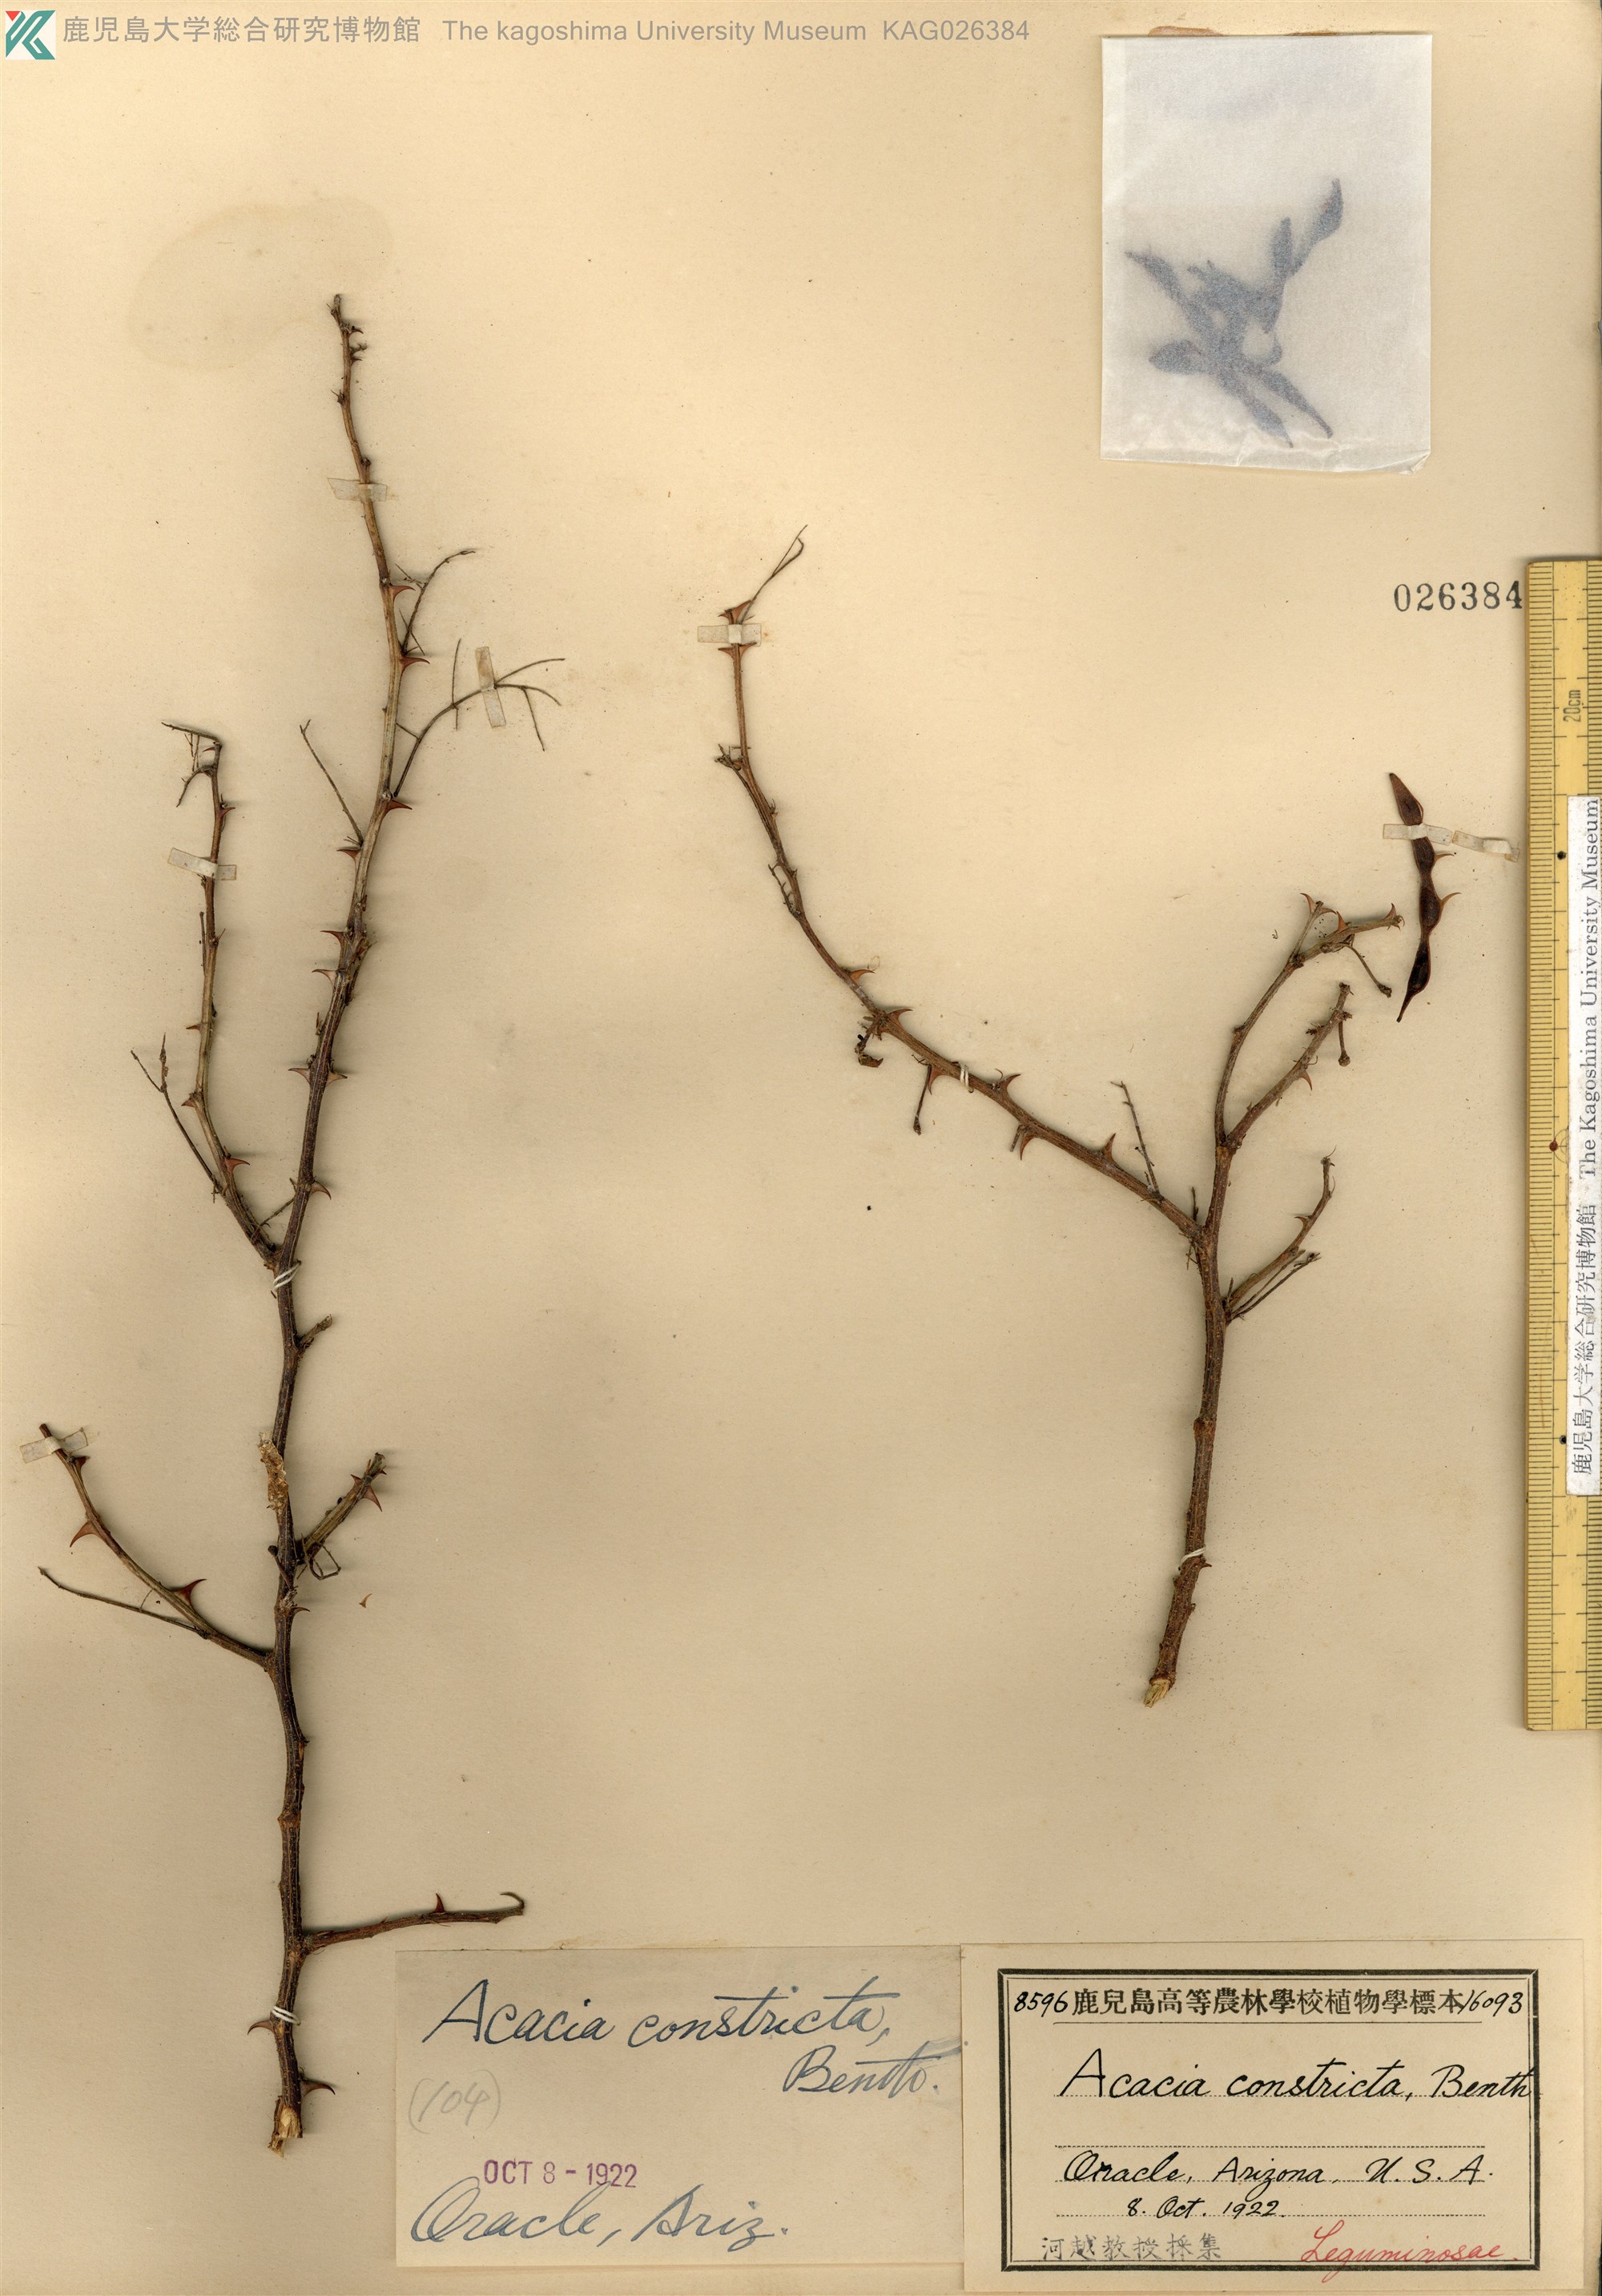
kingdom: Plantae
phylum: Tracheophyta
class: Magnoliopsida
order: Fabales
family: Fabaceae
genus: Vachellia
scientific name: Vachellia constricta
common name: Mescat acacia
